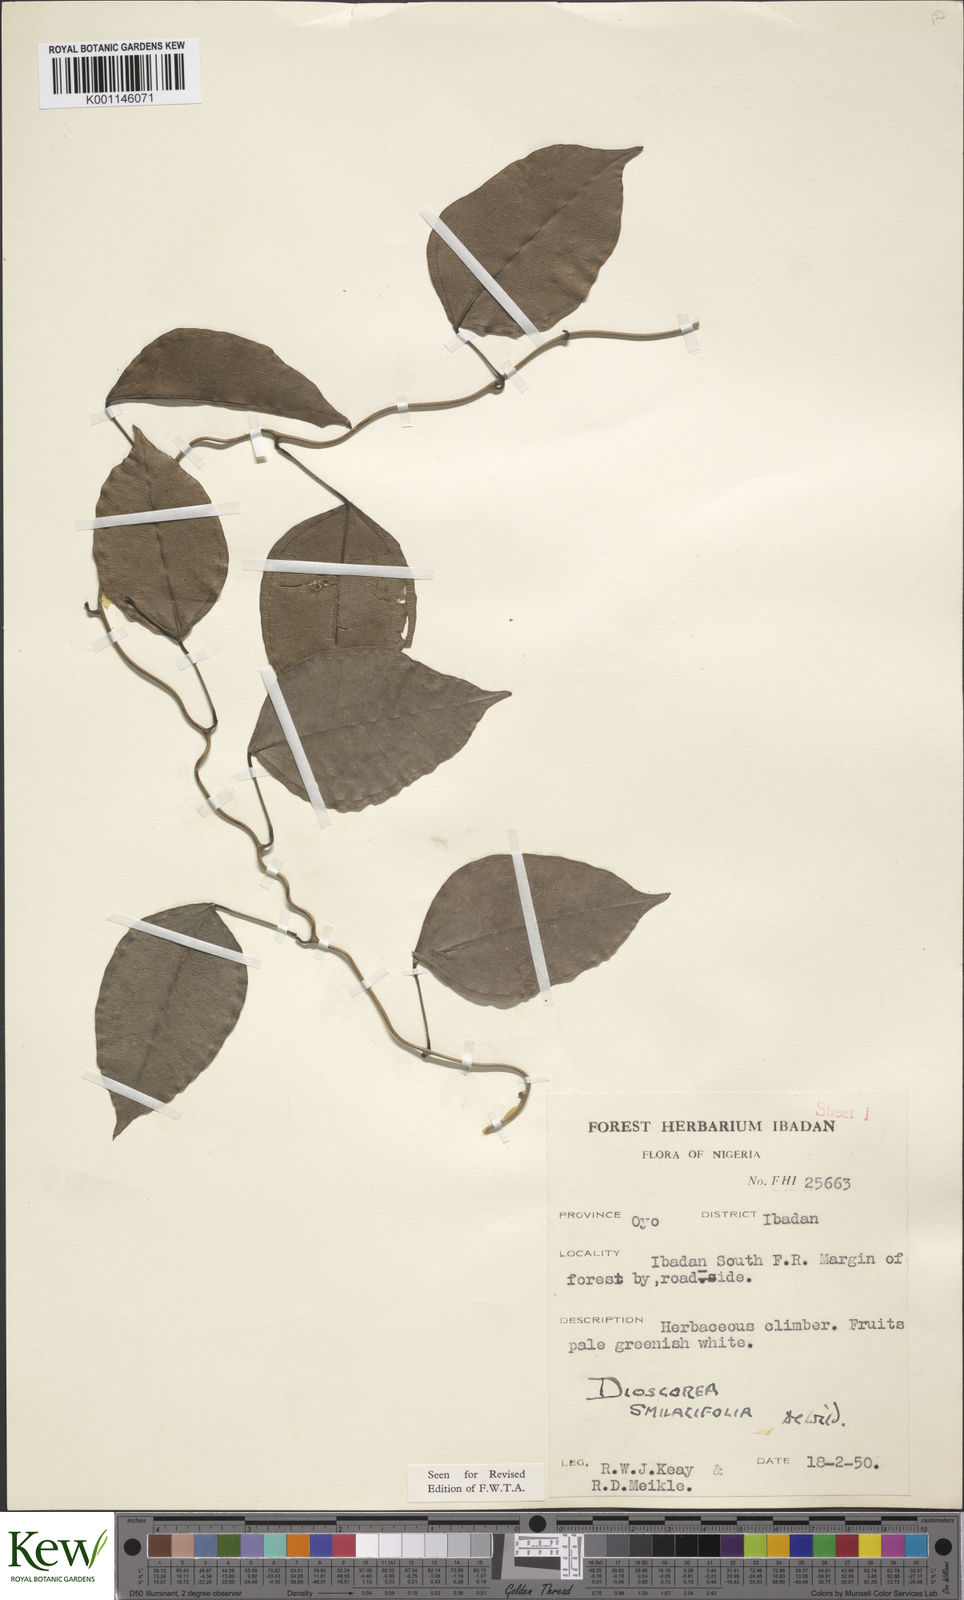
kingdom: Plantae
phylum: Tracheophyta
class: Liliopsida
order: Dioscoreales
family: Dioscoreaceae
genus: Dioscorea
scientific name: Dioscorea smilacifolia
